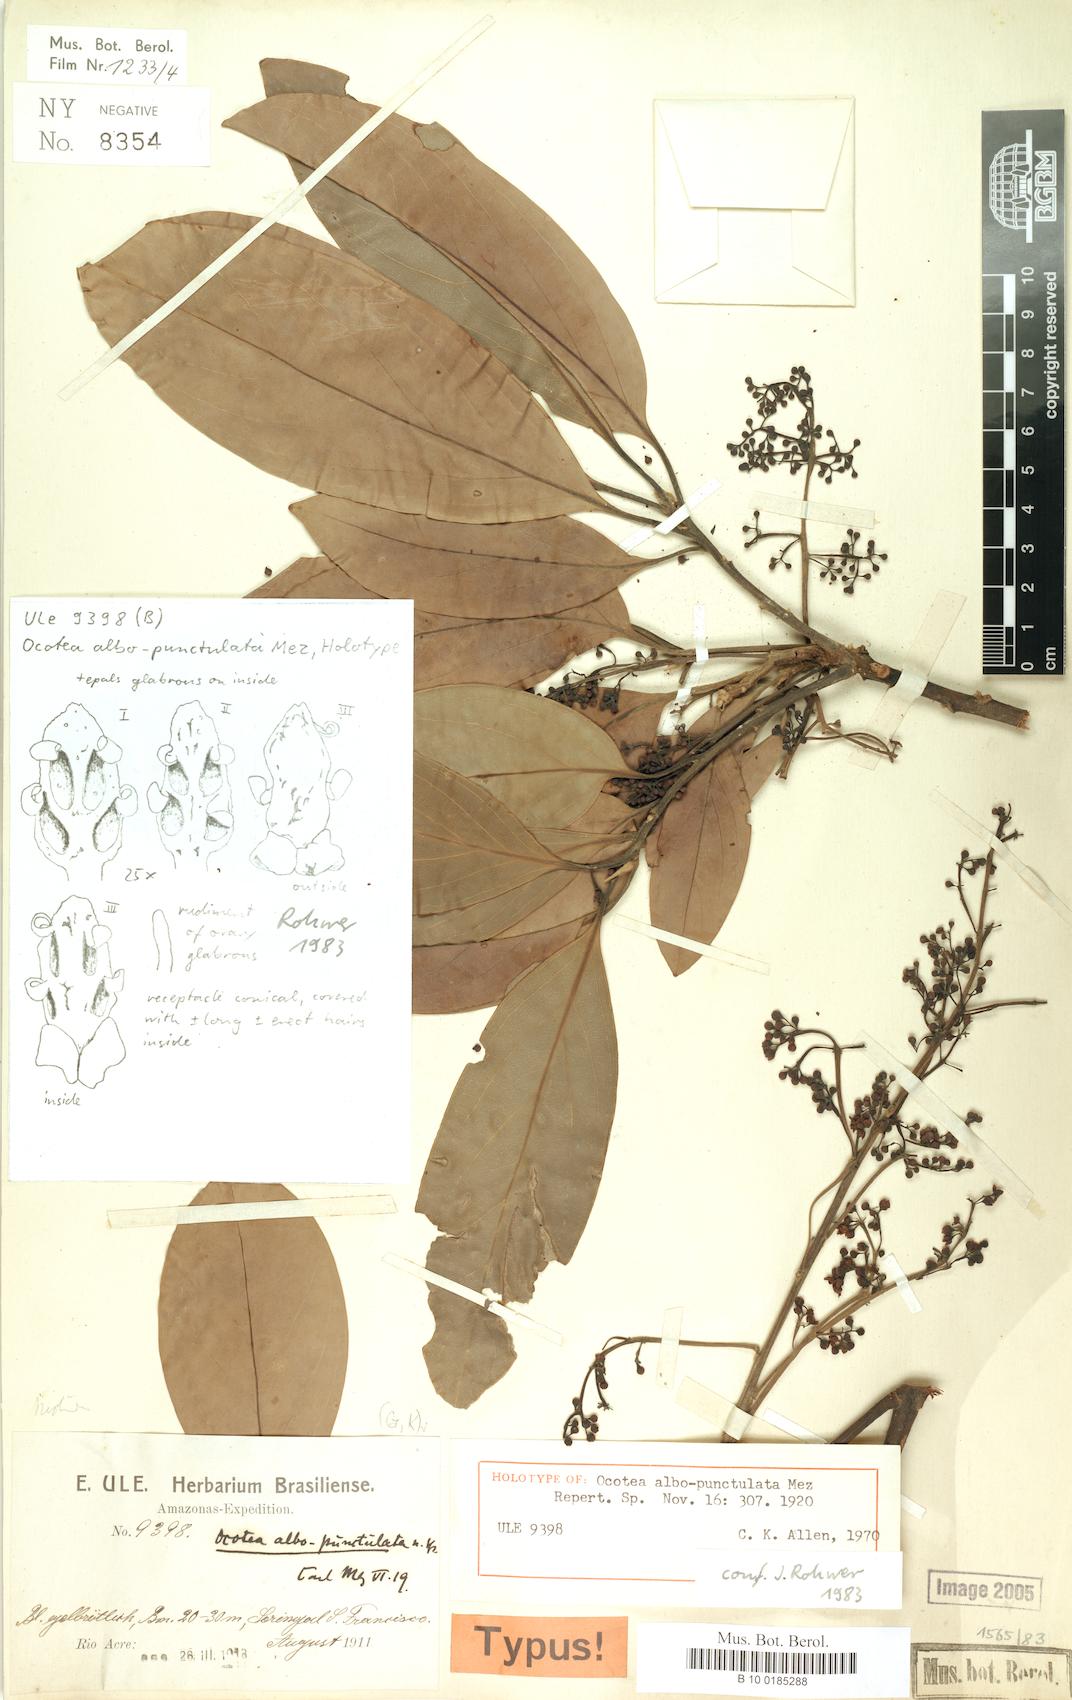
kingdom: Plantae
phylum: Tracheophyta
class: Magnoliopsida
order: Laurales
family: Lauraceae
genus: Ocotea
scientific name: Ocotea albopunctulata
